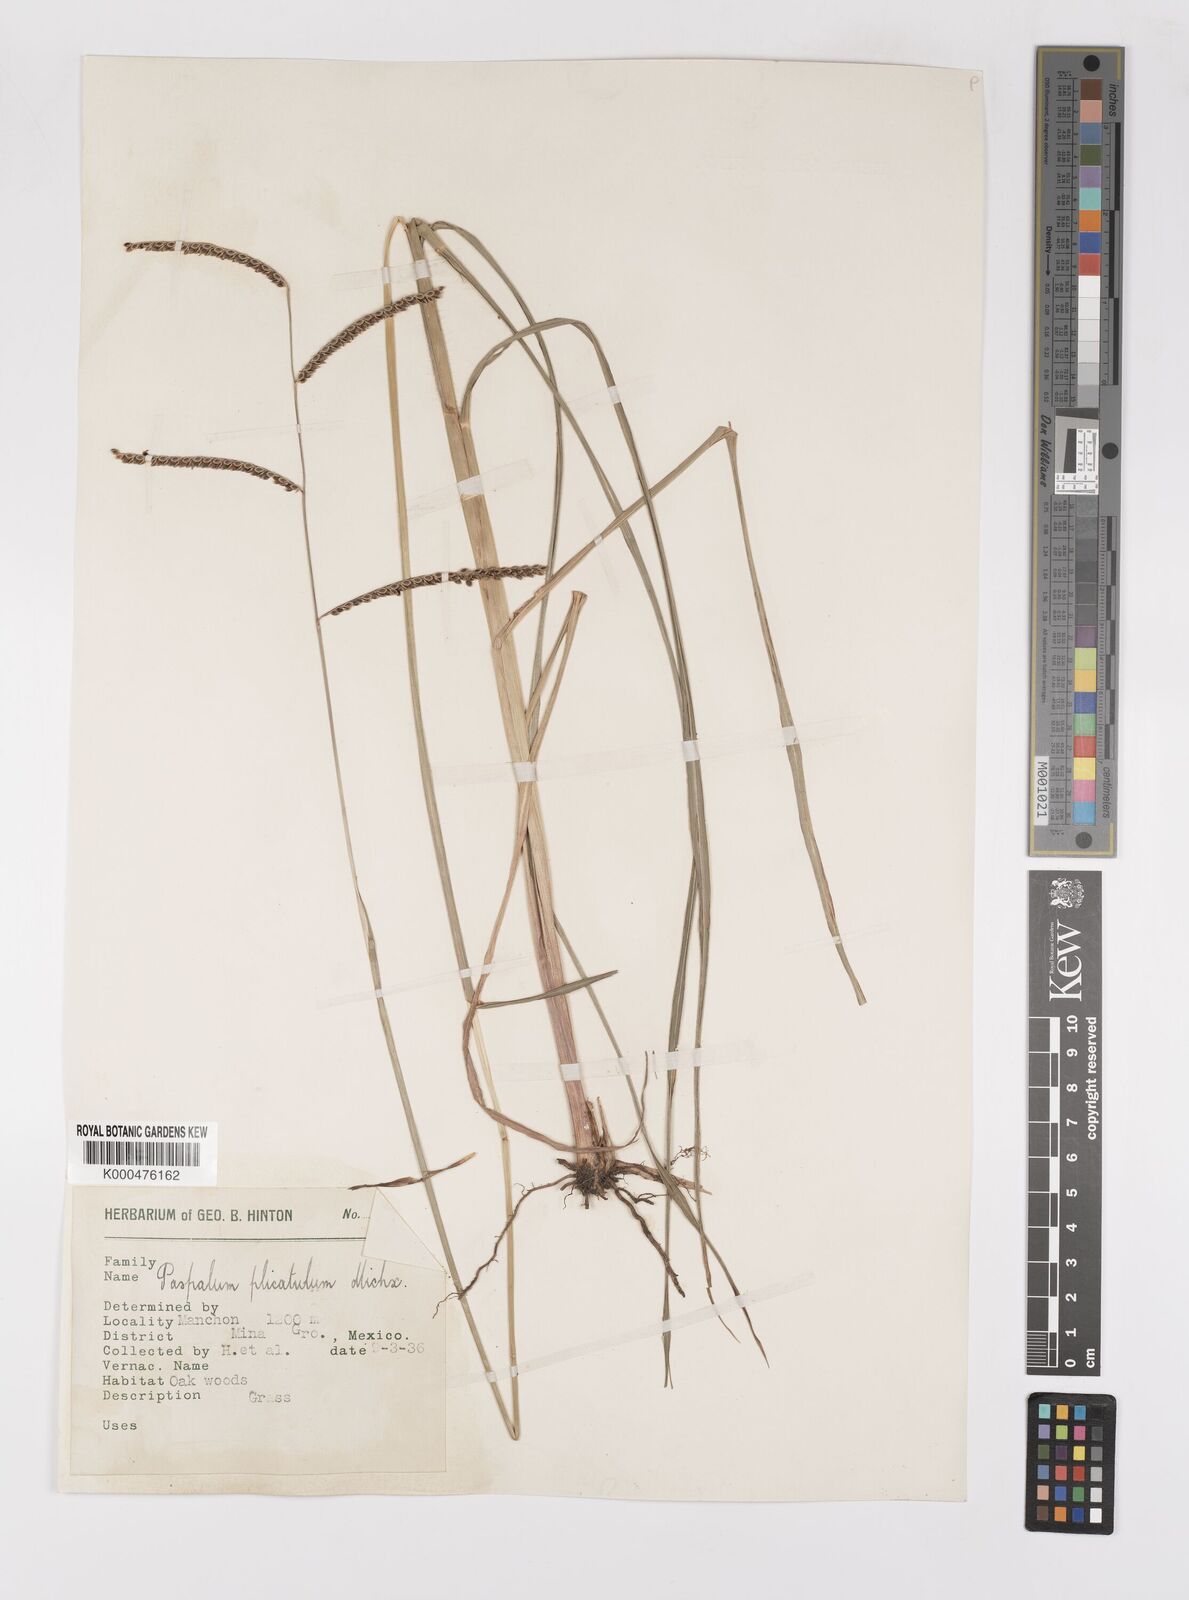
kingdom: Plantae
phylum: Tracheophyta
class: Liliopsida
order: Poales
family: Poaceae
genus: Paspalum
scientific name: Paspalum plicatulum
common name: Top paspalum
